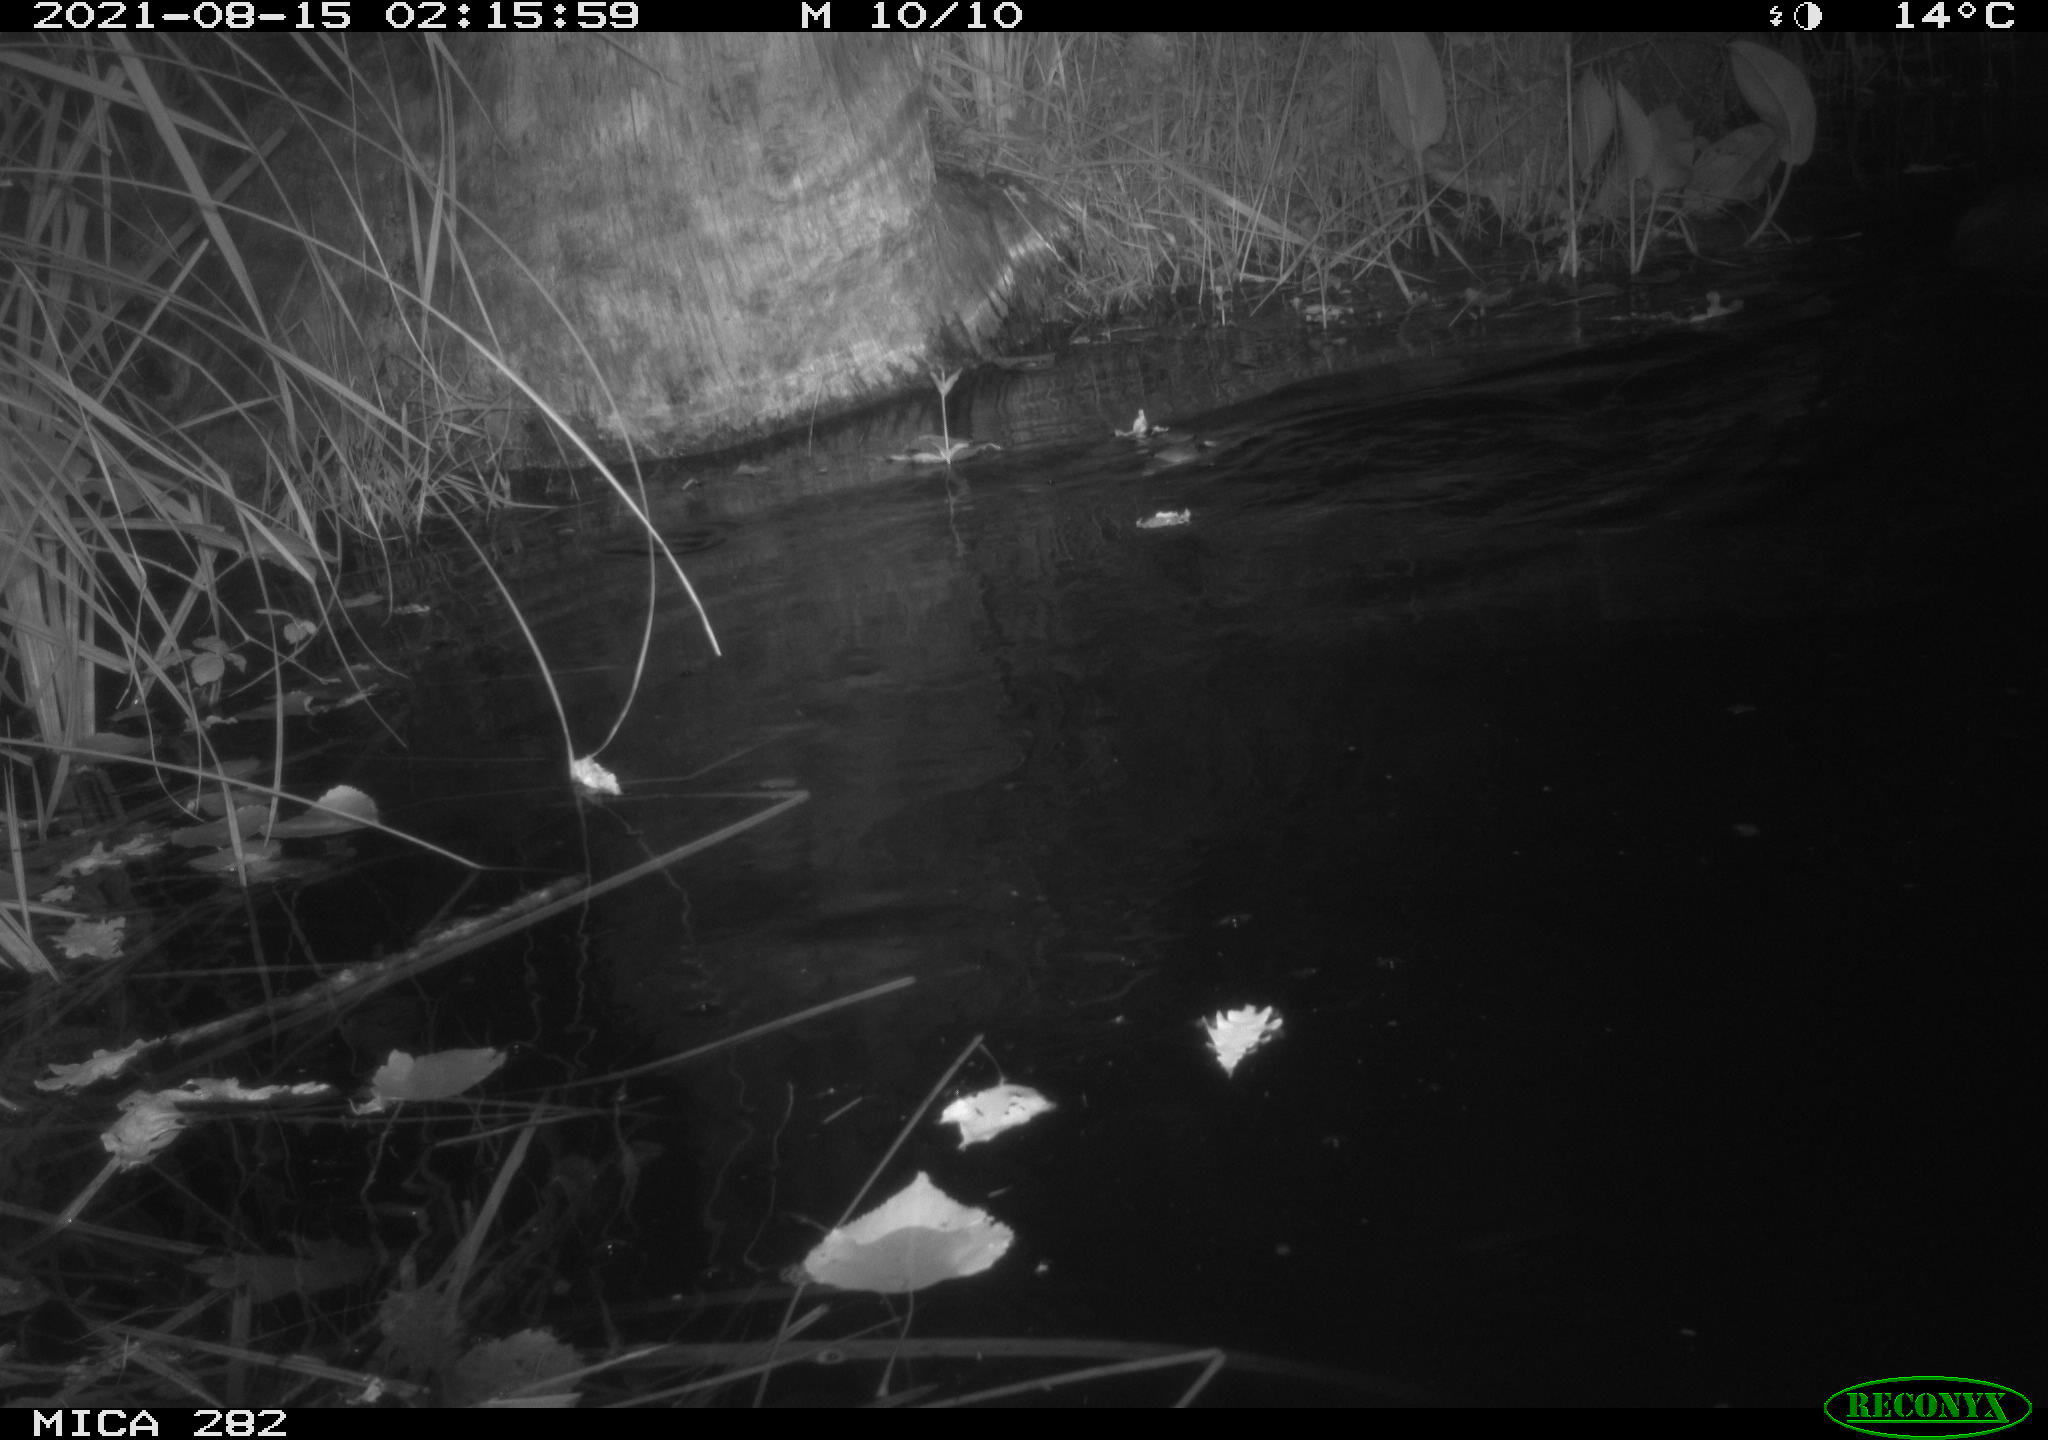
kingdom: Animalia
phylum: Chordata
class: Mammalia
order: Rodentia
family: Castoridae
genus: Castor
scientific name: Castor fiber
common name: Eurasian beaver
